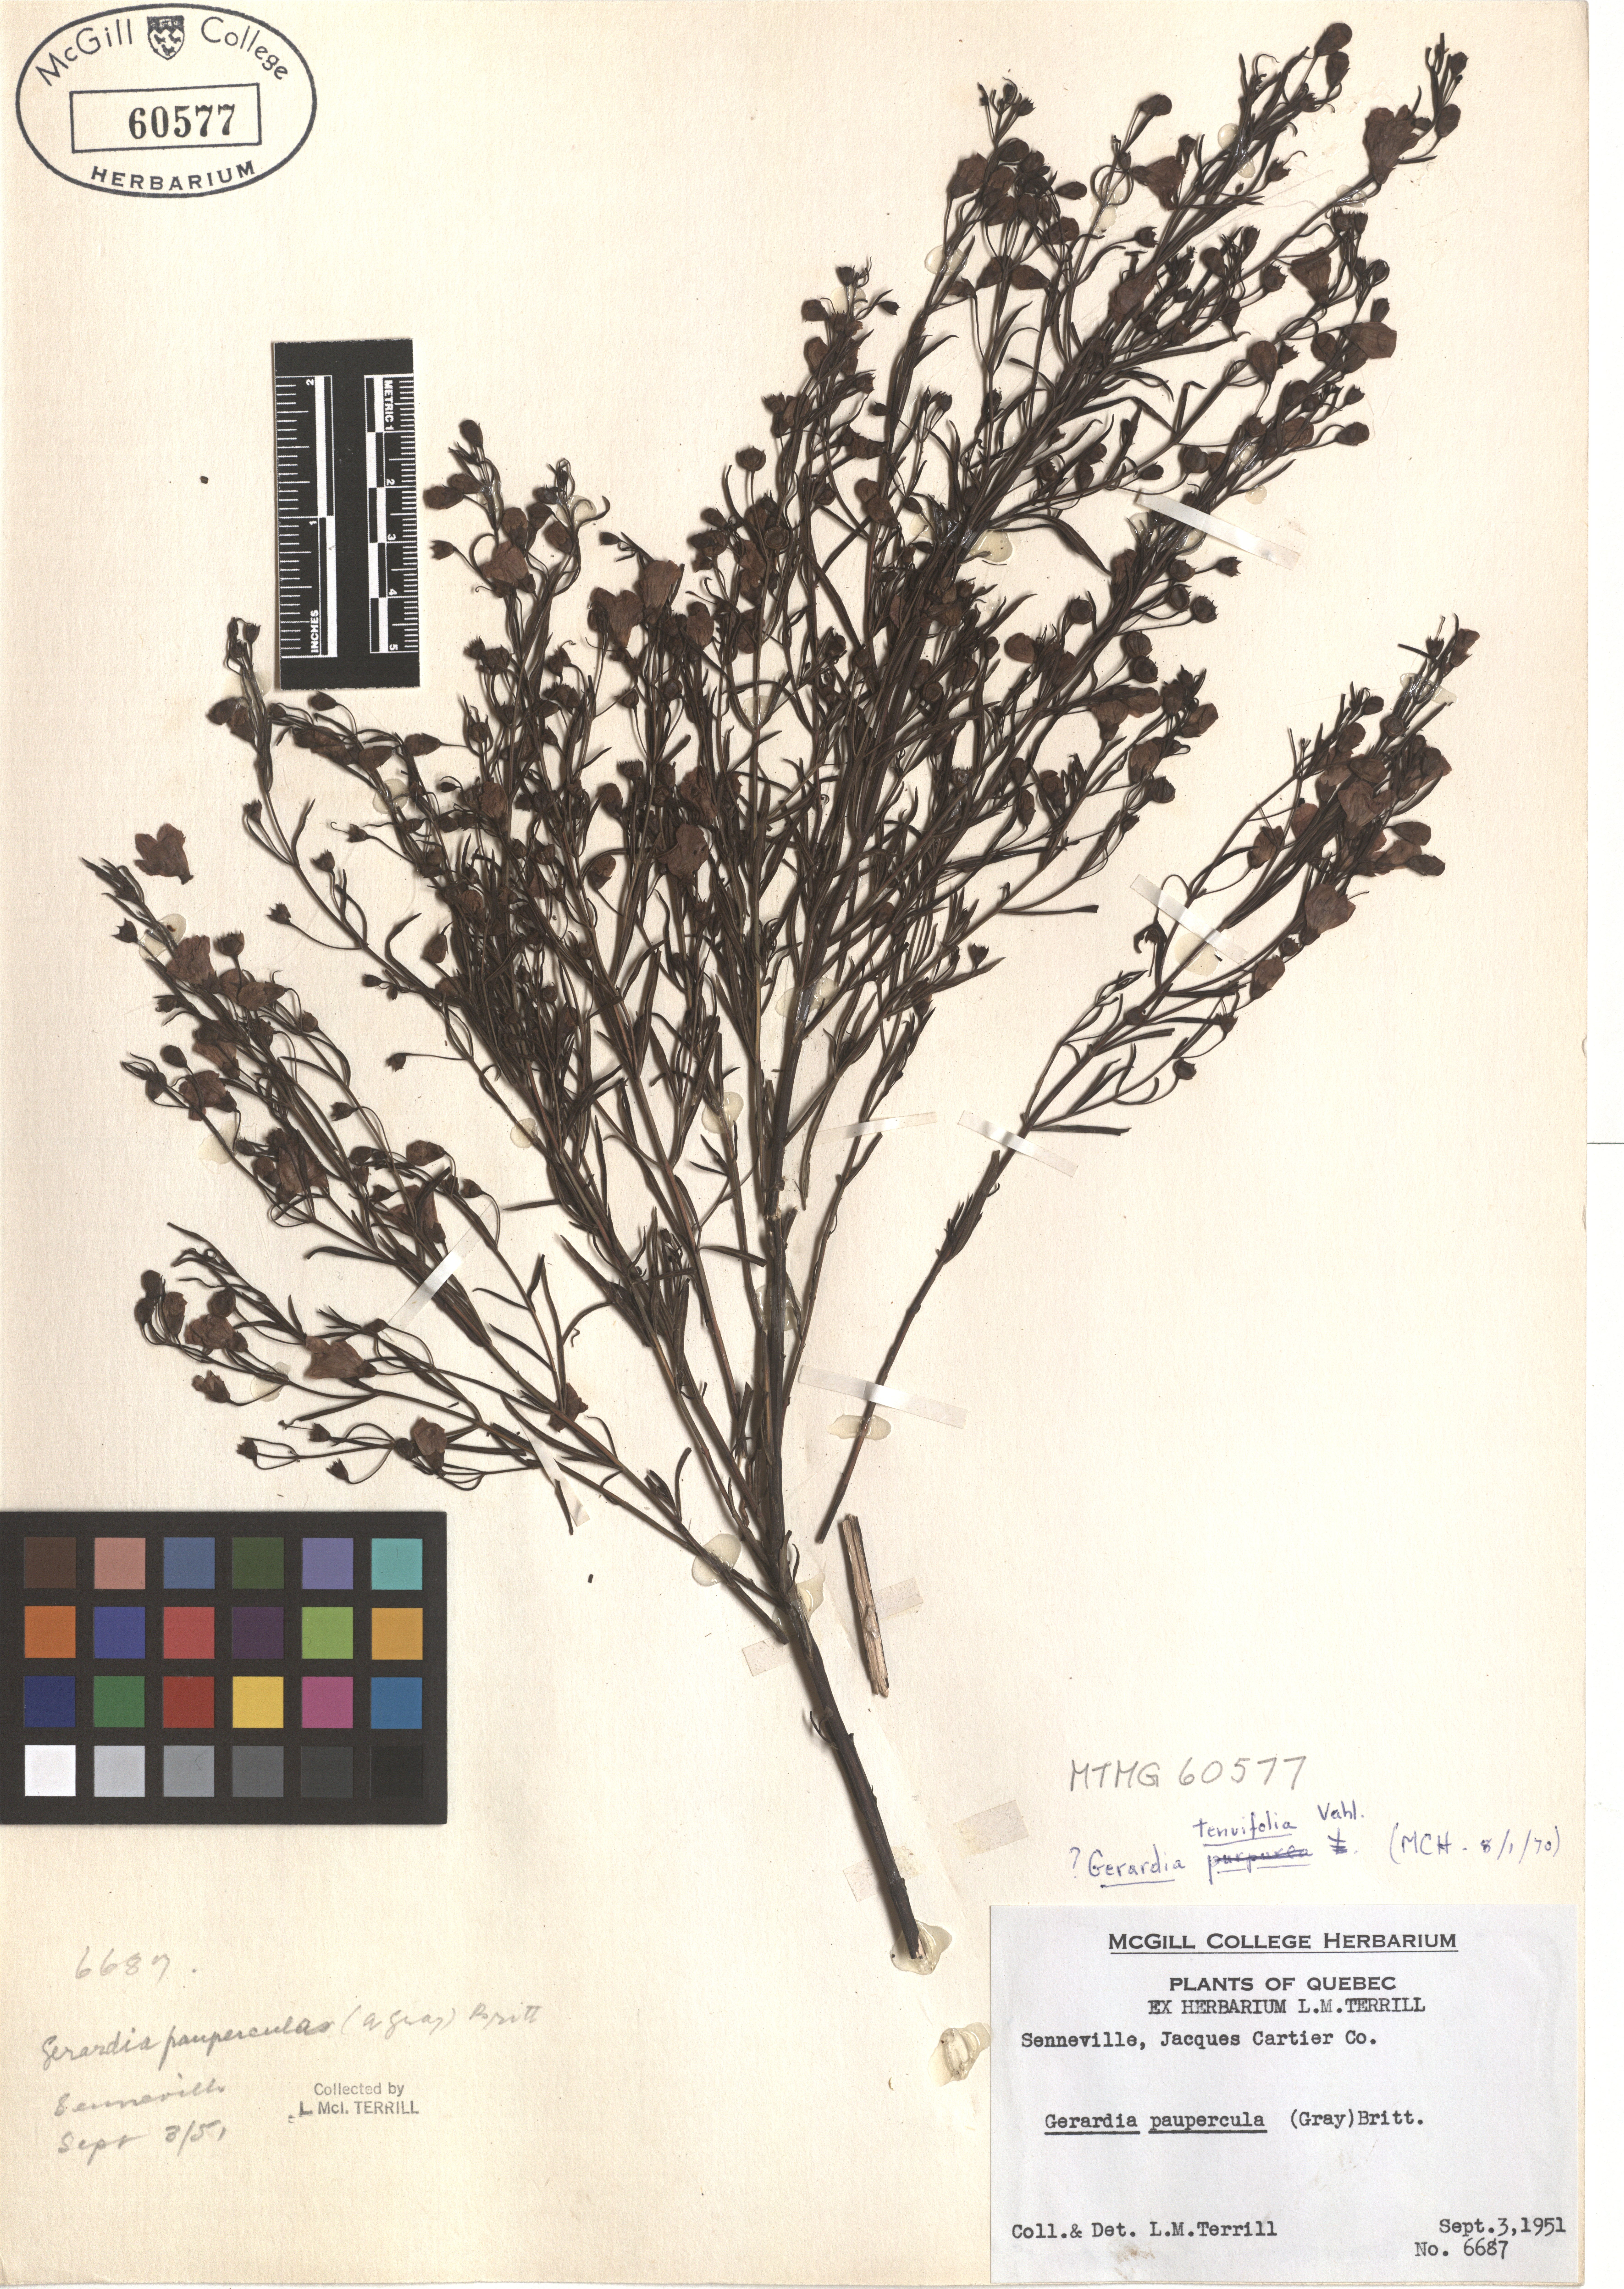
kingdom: Plantae
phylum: Tracheophyta
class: Magnoliopsida
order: Lamiales
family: Orobanchaceae
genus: Agalinis
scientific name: Agalinis tenuifolia
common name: Slender agalinis
